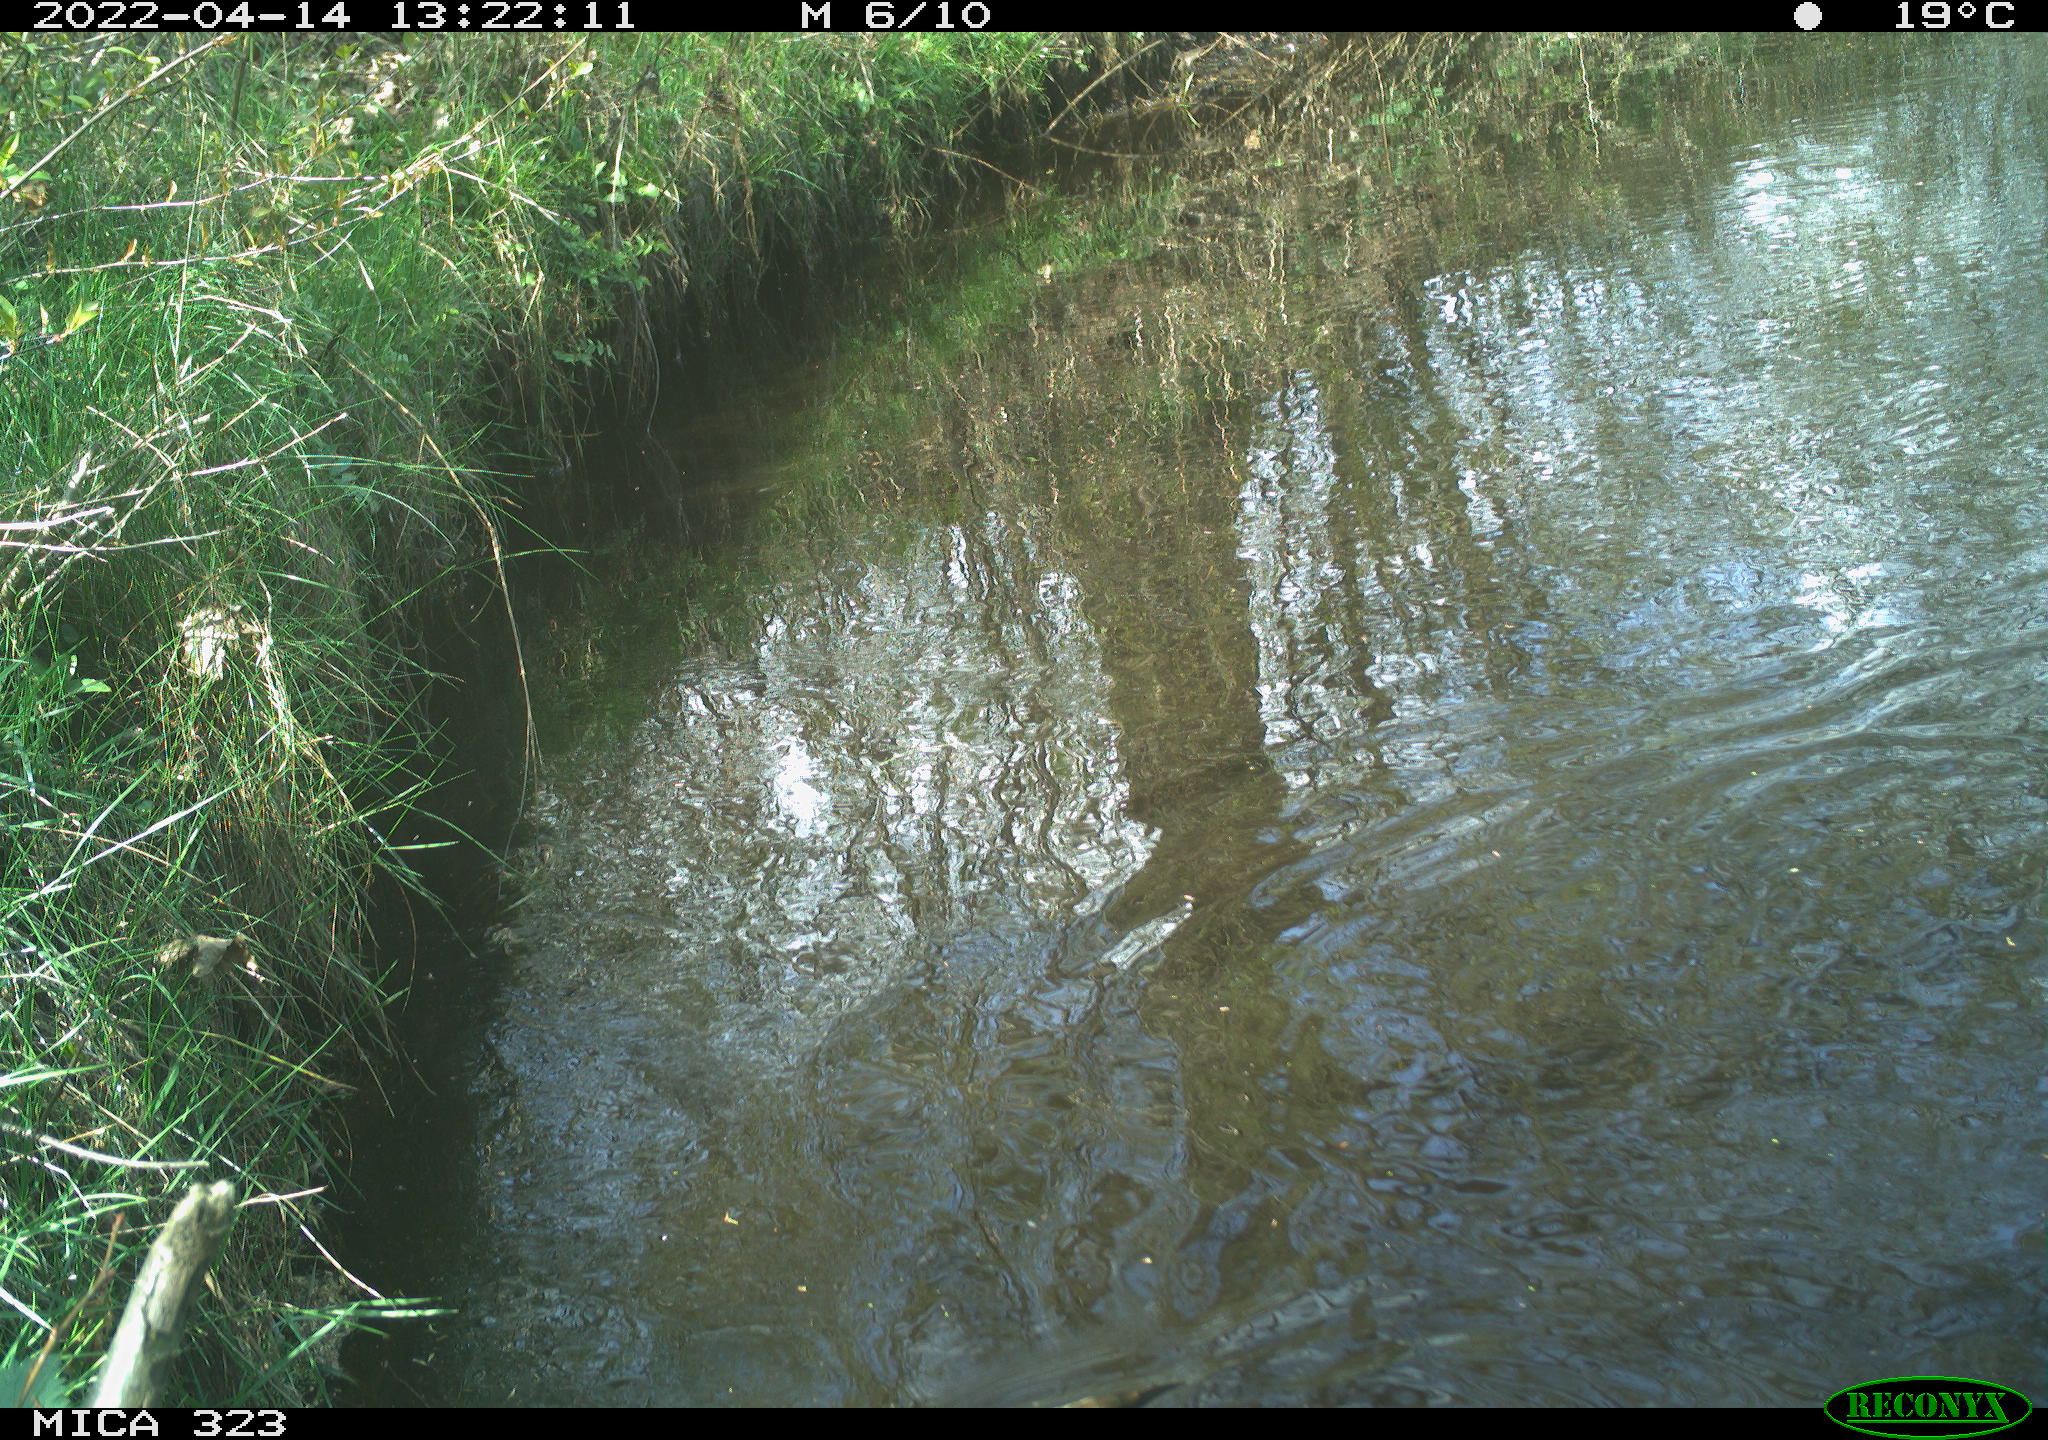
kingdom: Animalia
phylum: Chordata
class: Aves
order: Gruiformes
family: Rallidae
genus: Gallinula
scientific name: Gallinula chloropus
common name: Common moorhen
